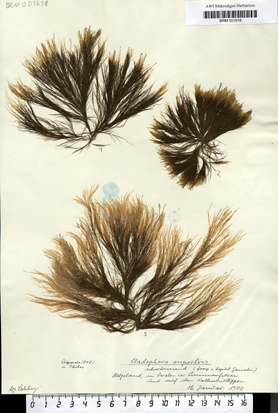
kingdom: Plantae
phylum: Chlorophyta
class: Ulvophyceae
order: Cladophorales
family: Cladophoraceae
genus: Cladophora
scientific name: Cladophora rupestris
